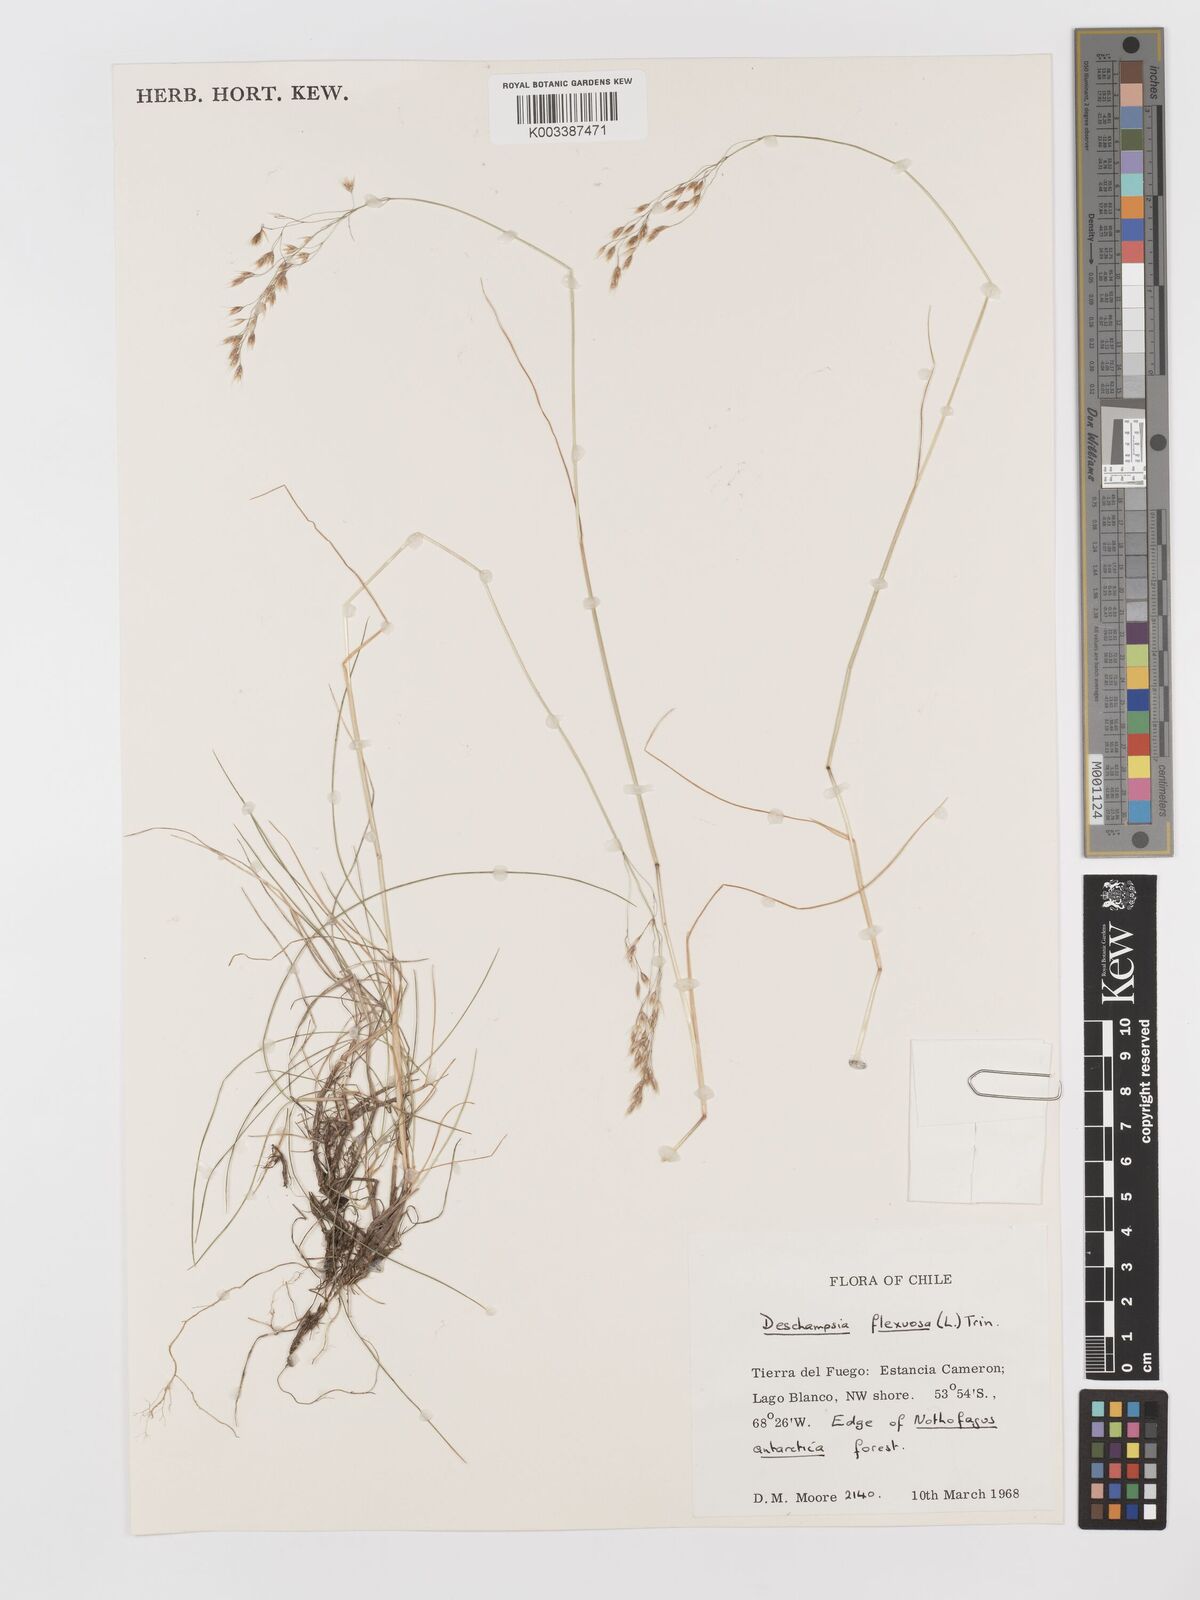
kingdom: Plantae
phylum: Tracheophyta
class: Liliopsida
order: Poales
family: Poaceae
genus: Avenella
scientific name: Avenella flexuosa
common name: Wavy hairgrass
